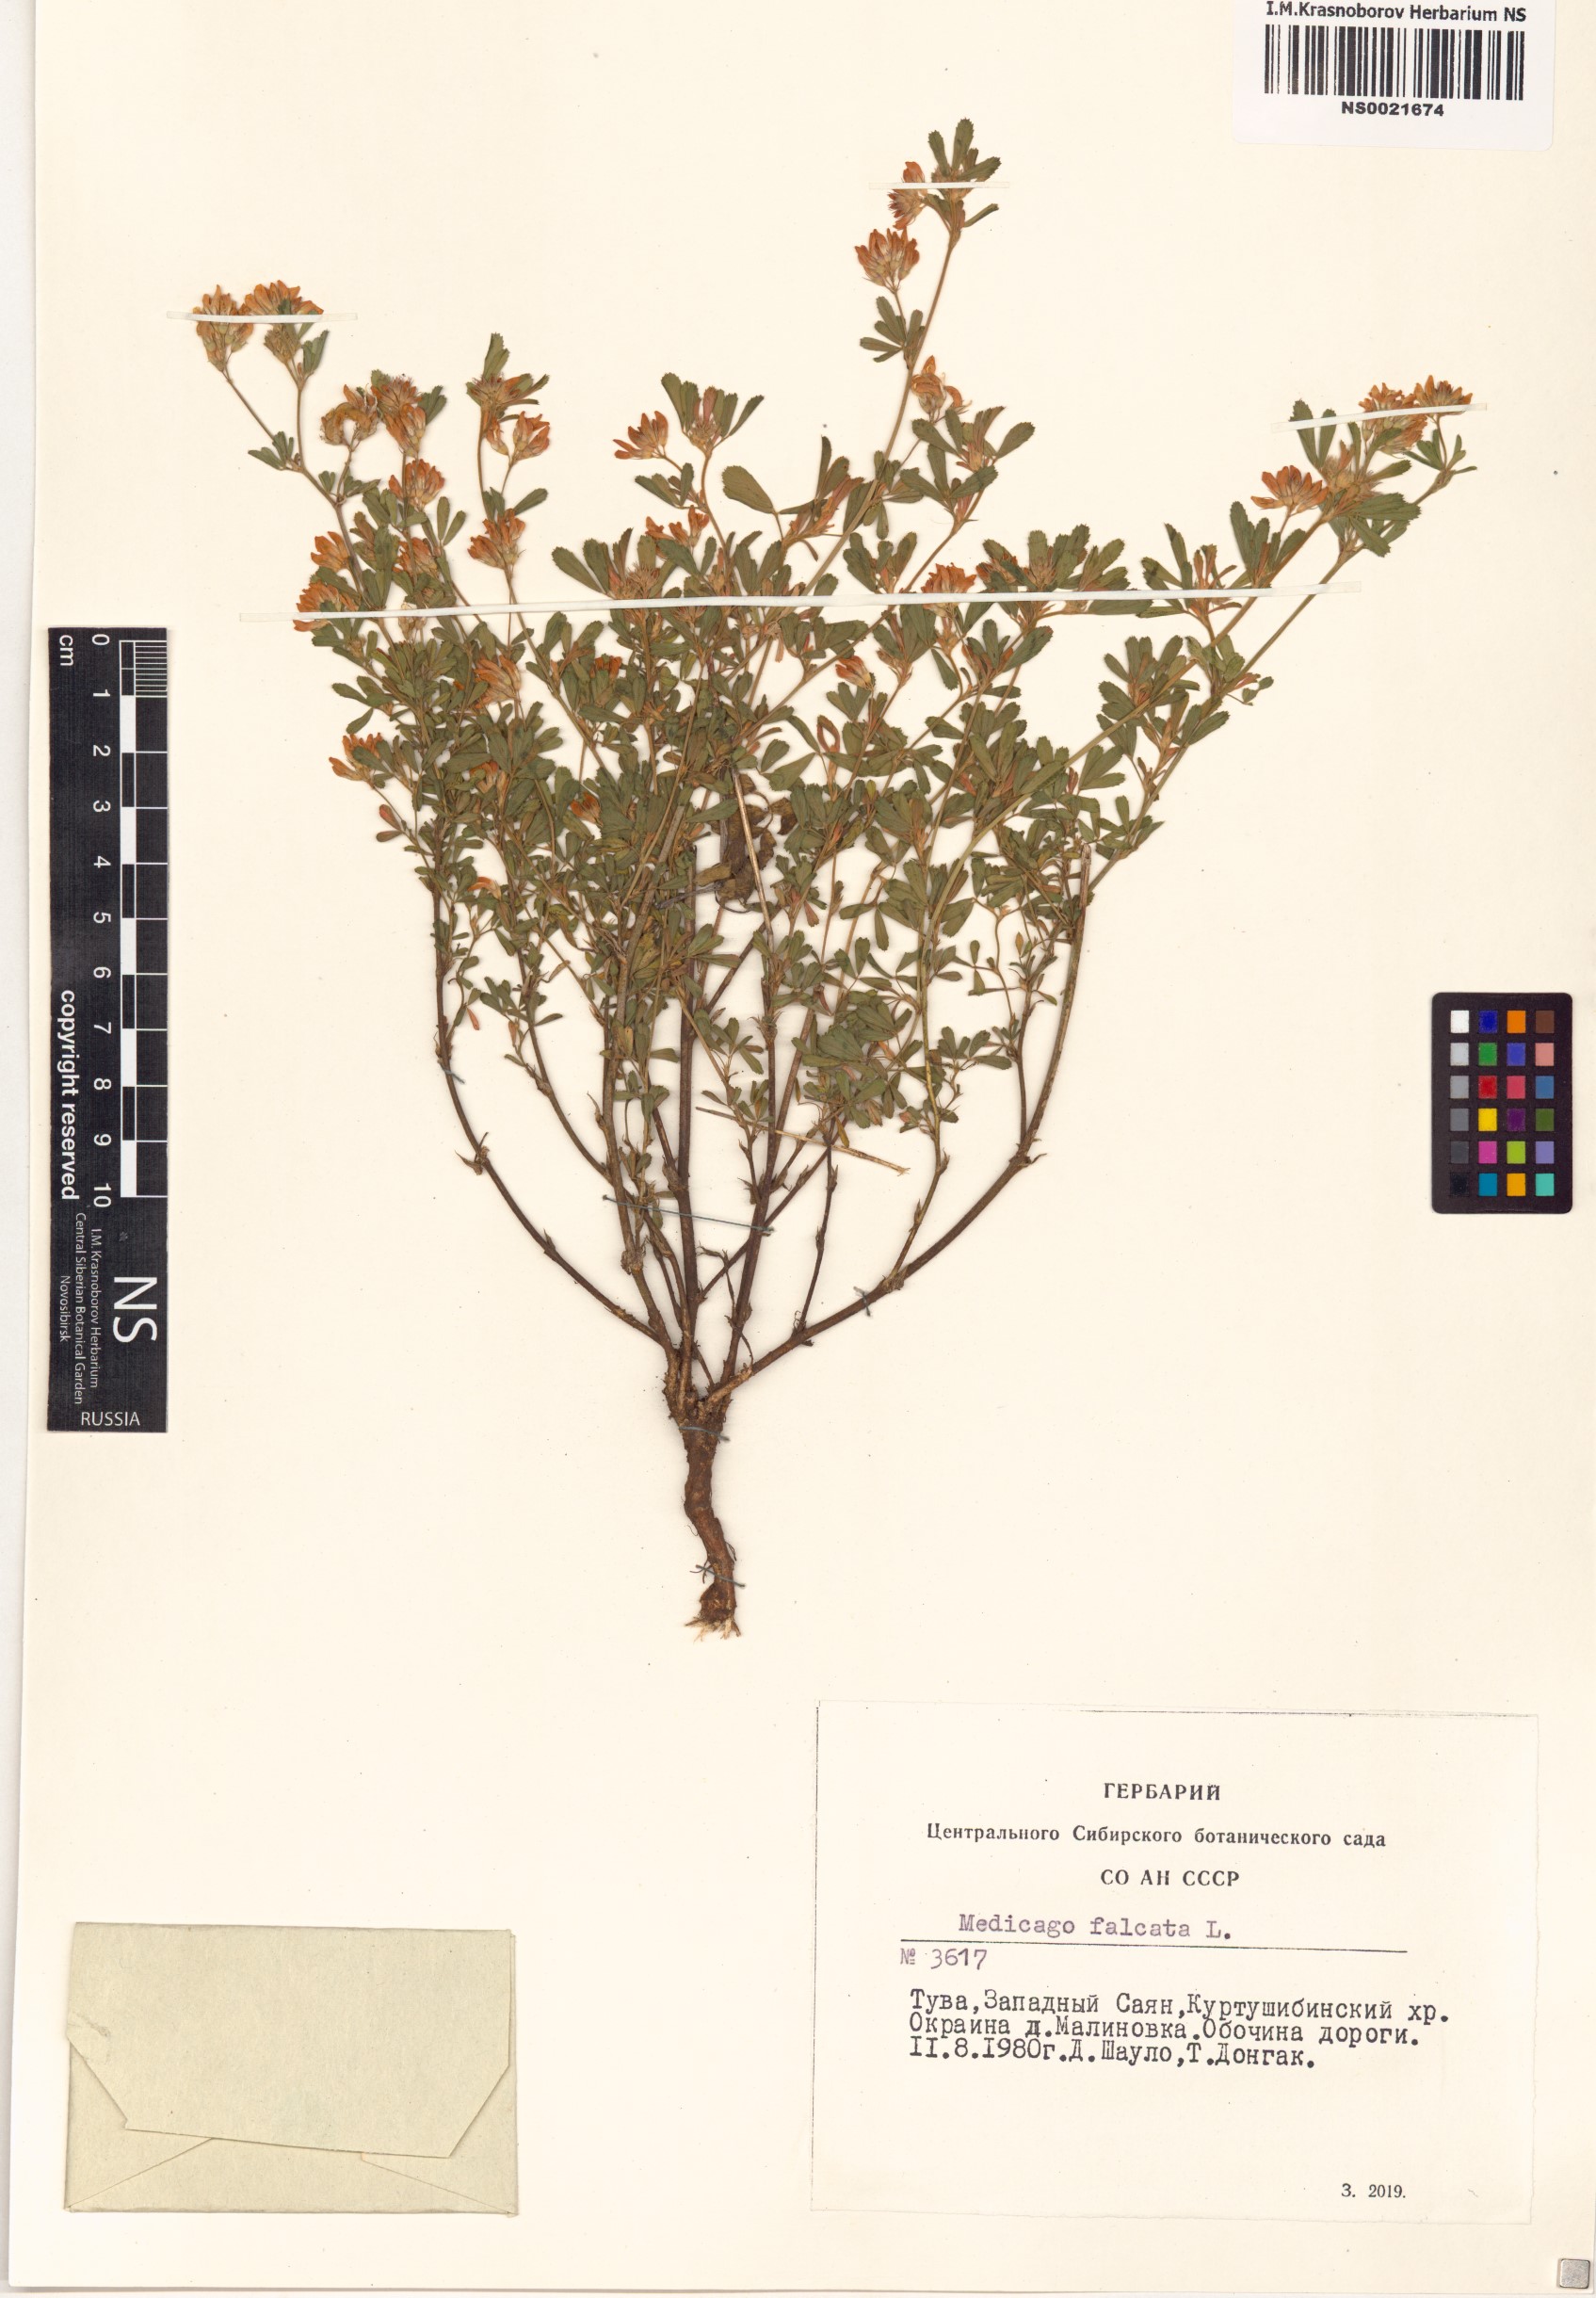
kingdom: Plantae
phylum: Tracheophyta
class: Magnoliopsida
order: Fabales
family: Fabaceae
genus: Medicago
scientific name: Medicago falcata
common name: Sickle medick
